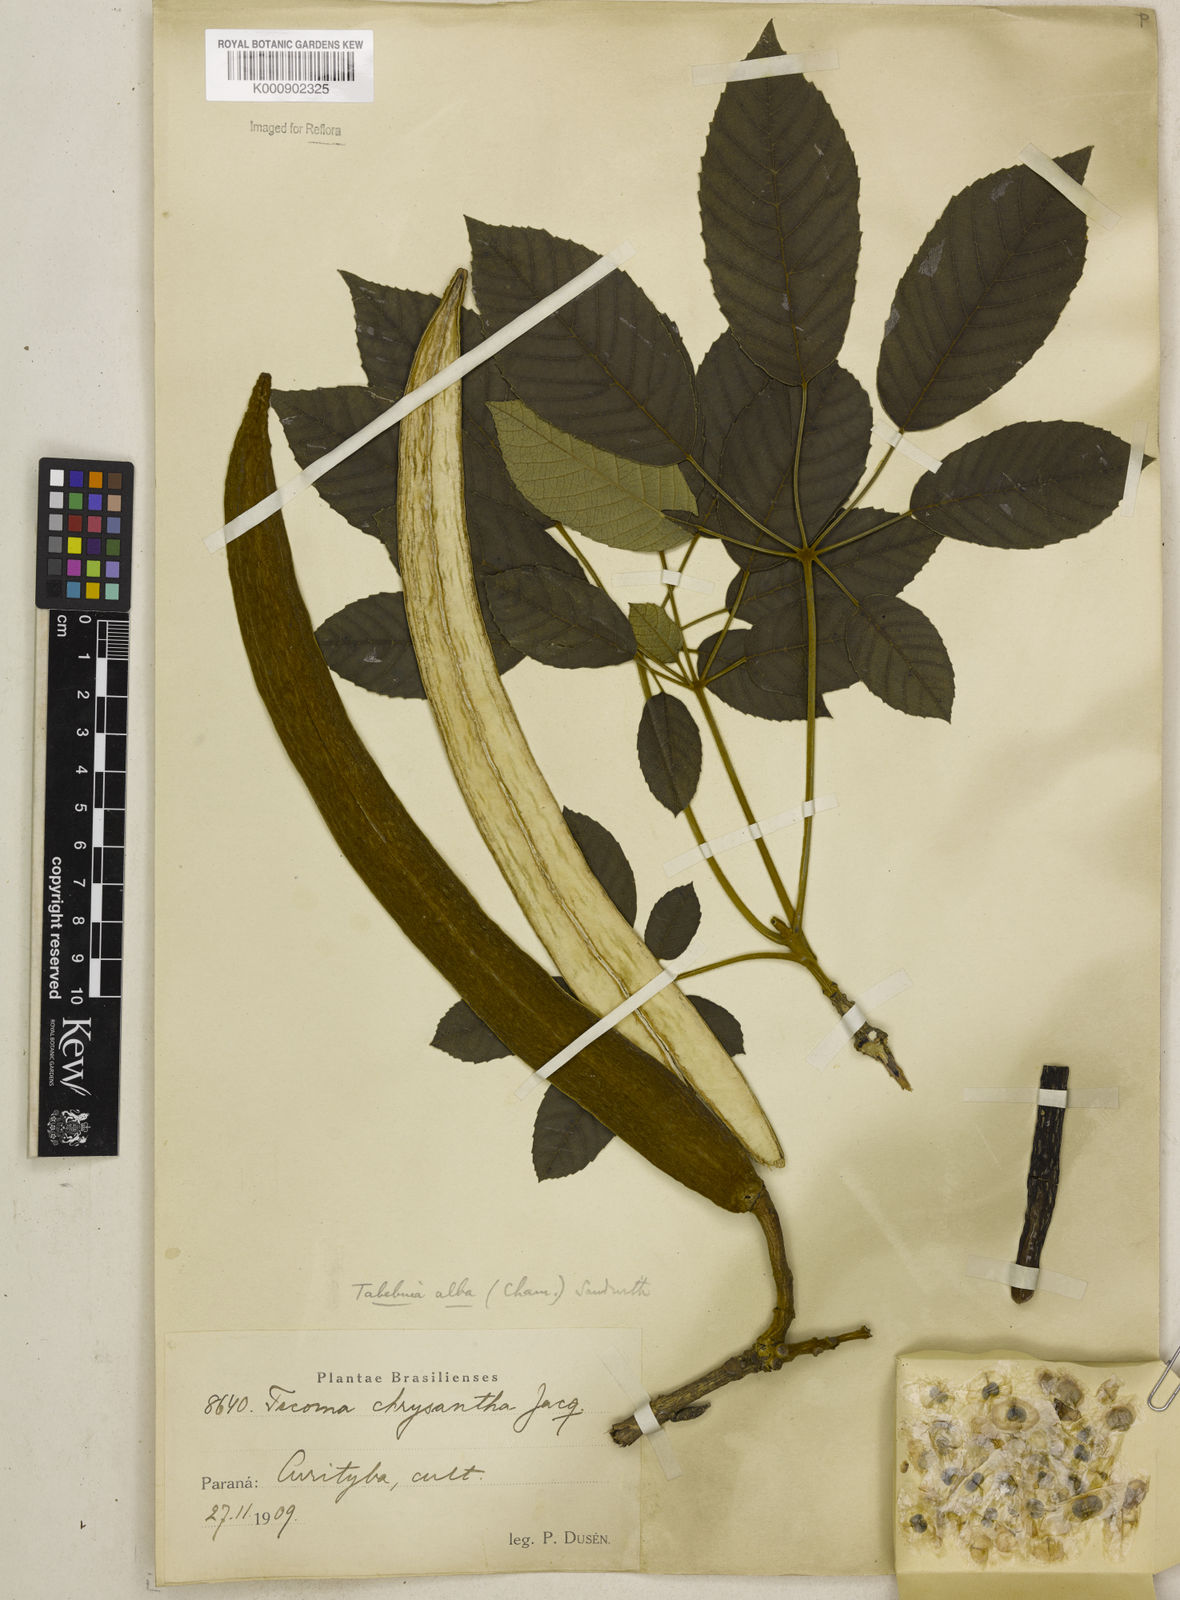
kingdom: Plantae
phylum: Tracheophyta
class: Magnoliopsida
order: Lamiales
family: Bignoniaceae
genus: Handroanthus
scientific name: Handroanthus albus
